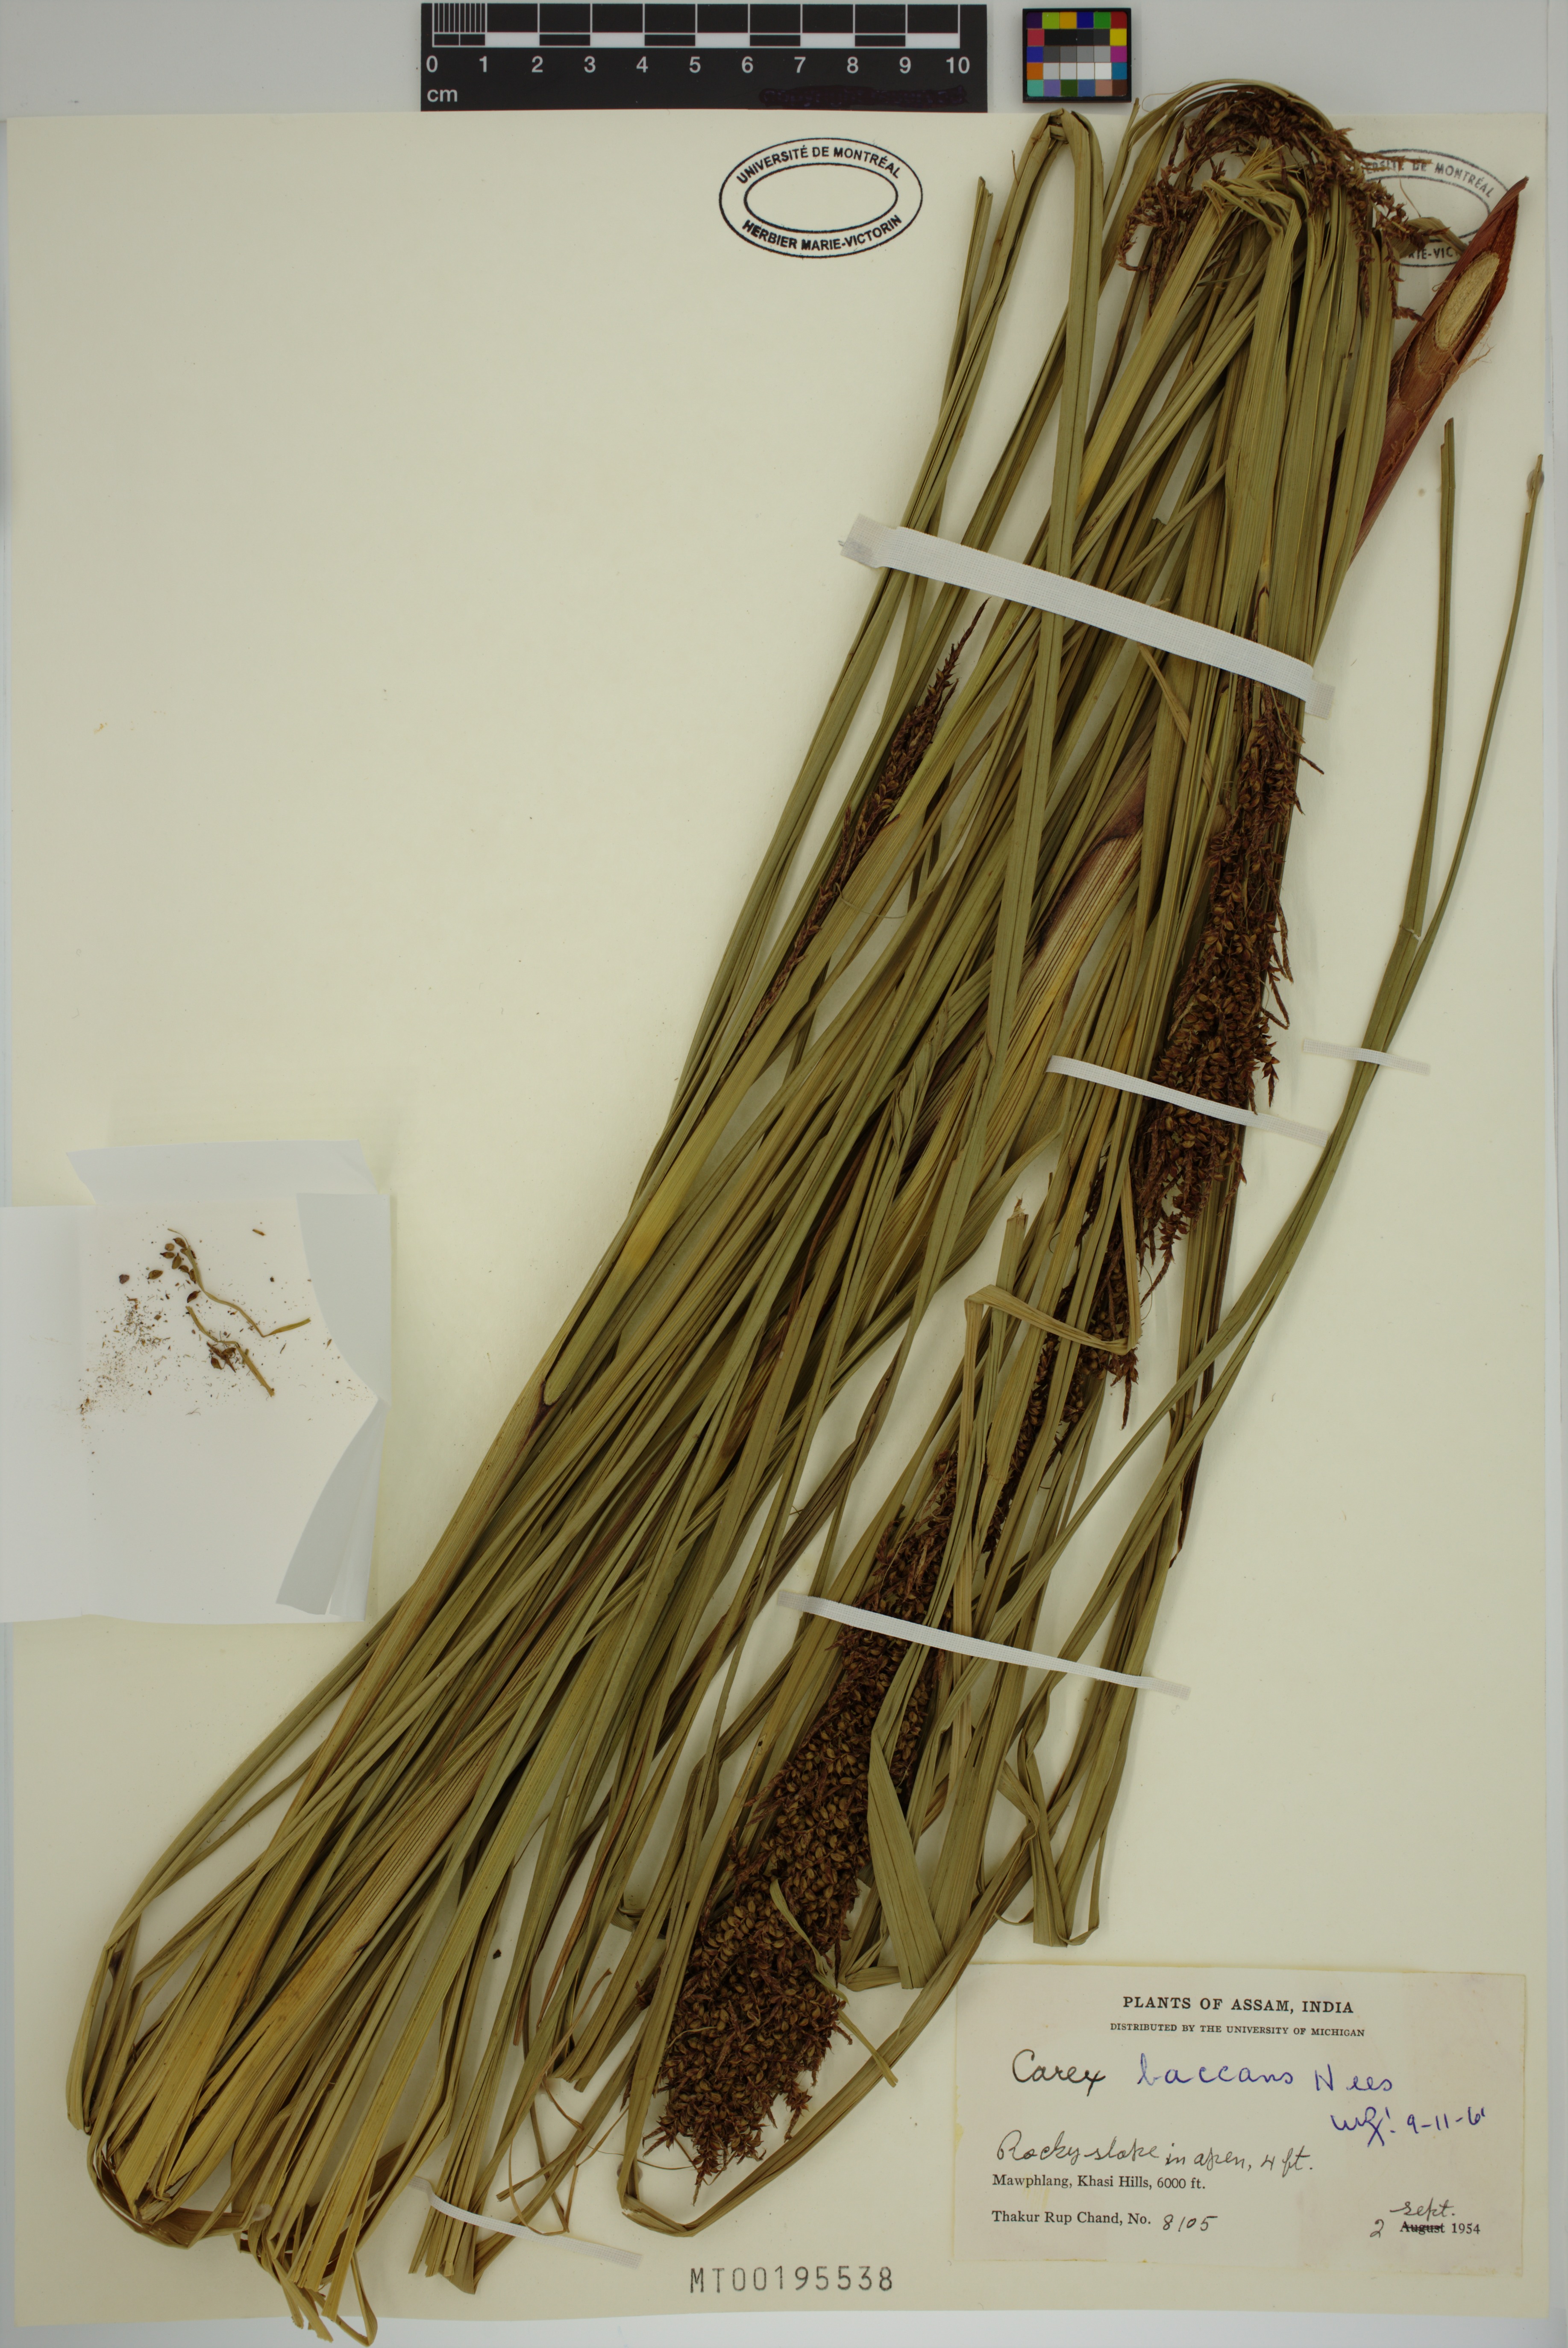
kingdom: Plantae
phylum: Tracheophyta
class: Liliopsida
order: Poales
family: Cyperaceae
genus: Carex
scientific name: Carex baccans
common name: Crimson seeded sedge
